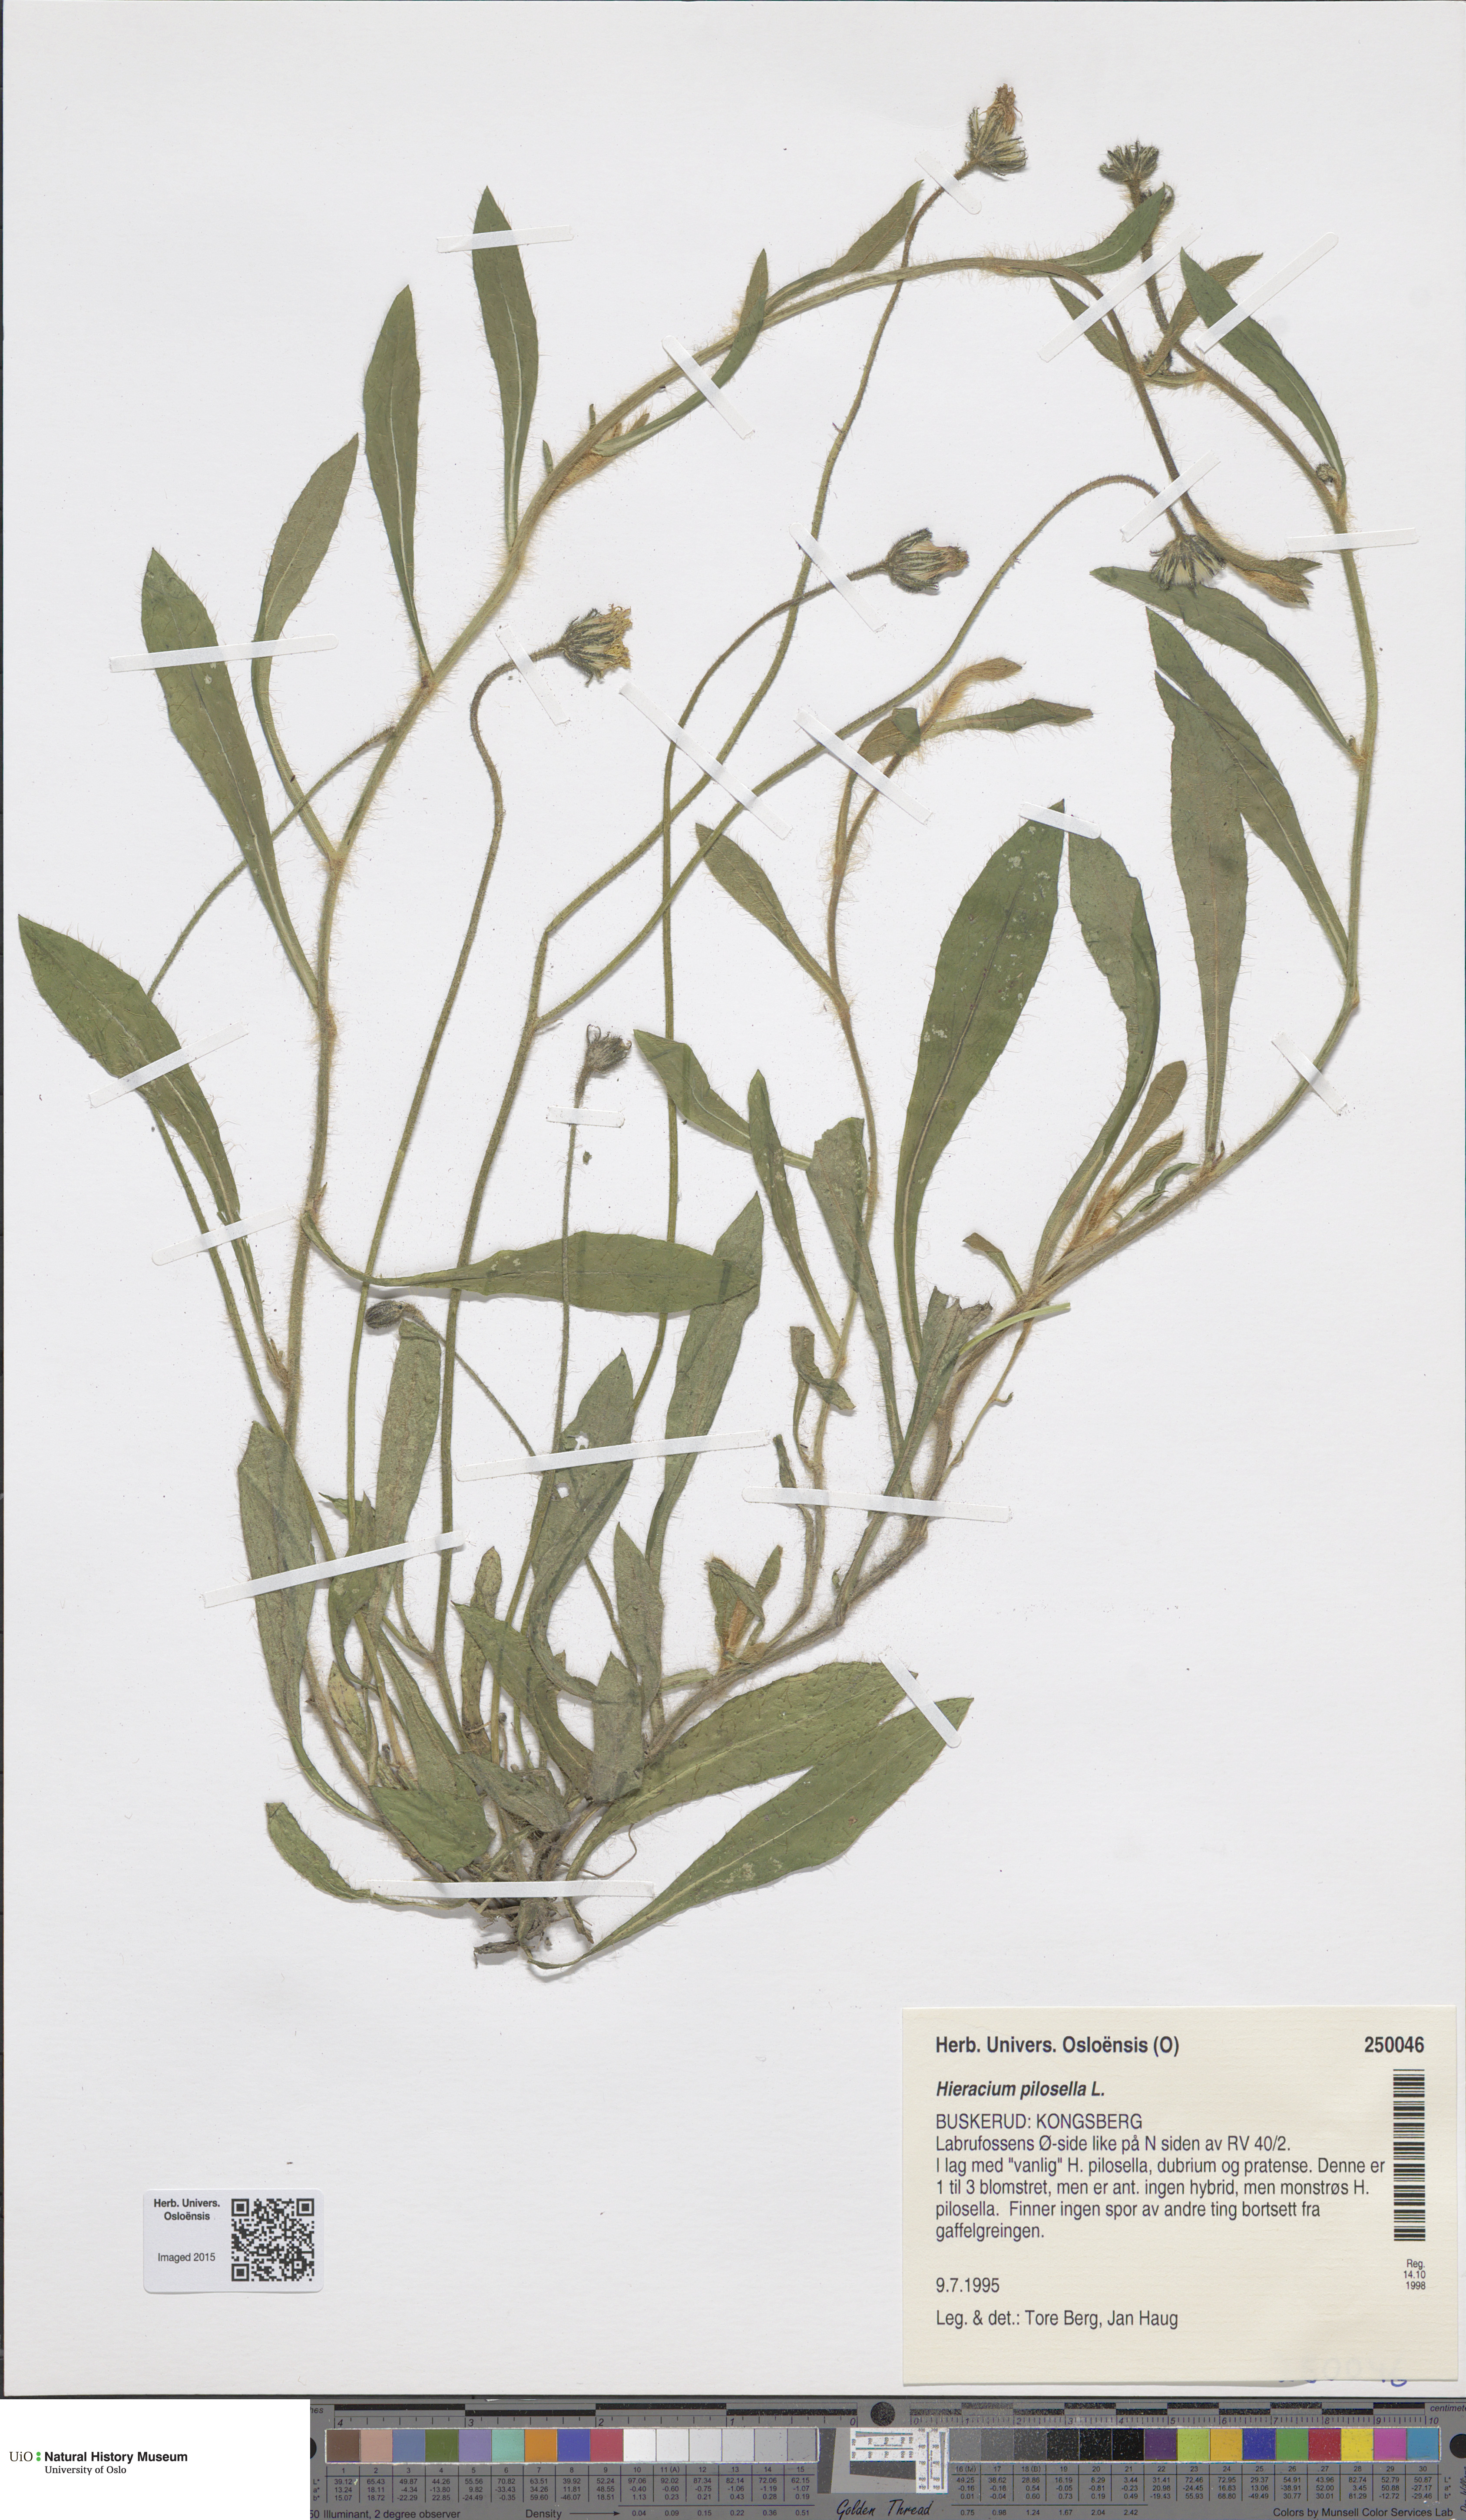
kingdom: Plantae
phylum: Tracheophyta
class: Magnoliopsida
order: Asterales
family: Asteraceae
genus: Pilosella
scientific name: Pilosella officinarum
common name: Mouse-ear hawkweed
